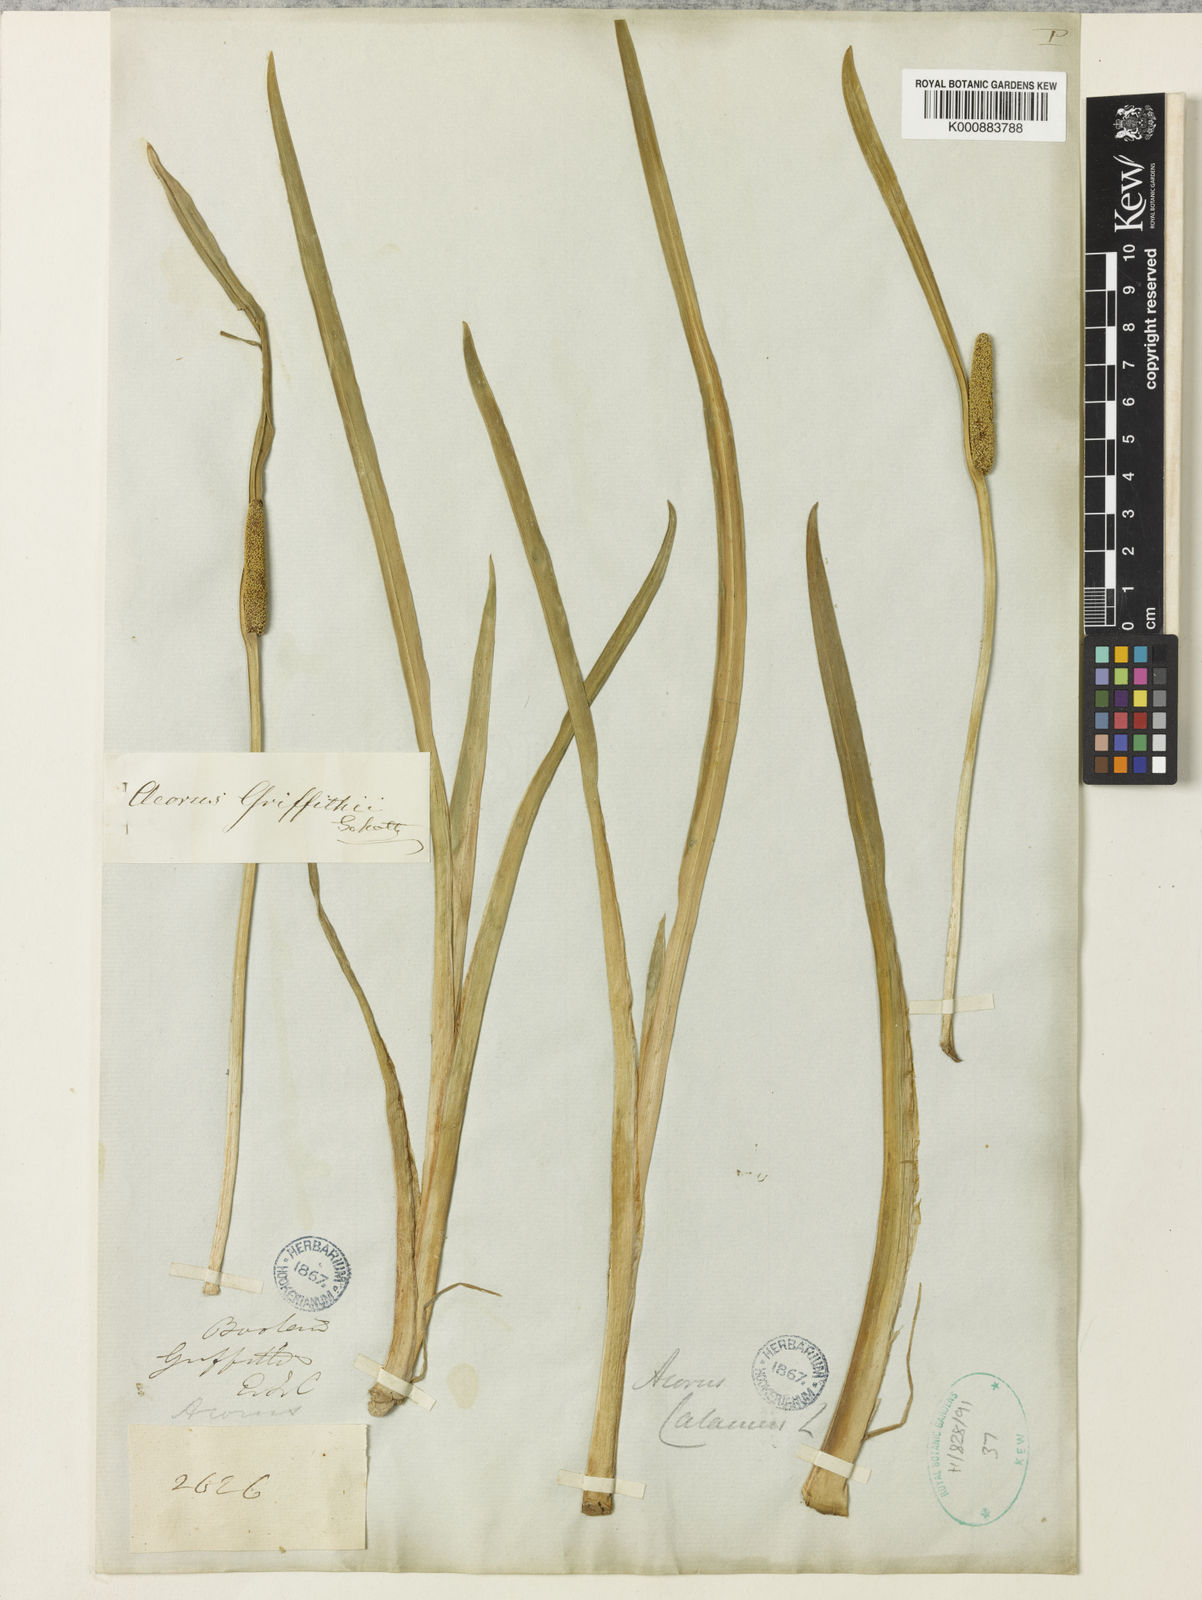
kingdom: Plantae
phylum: Tracheophyta
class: Liliopsida
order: Acorales
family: Acoraceae
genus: Acorus
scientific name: Acorus calamus
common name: Sweet-flag
